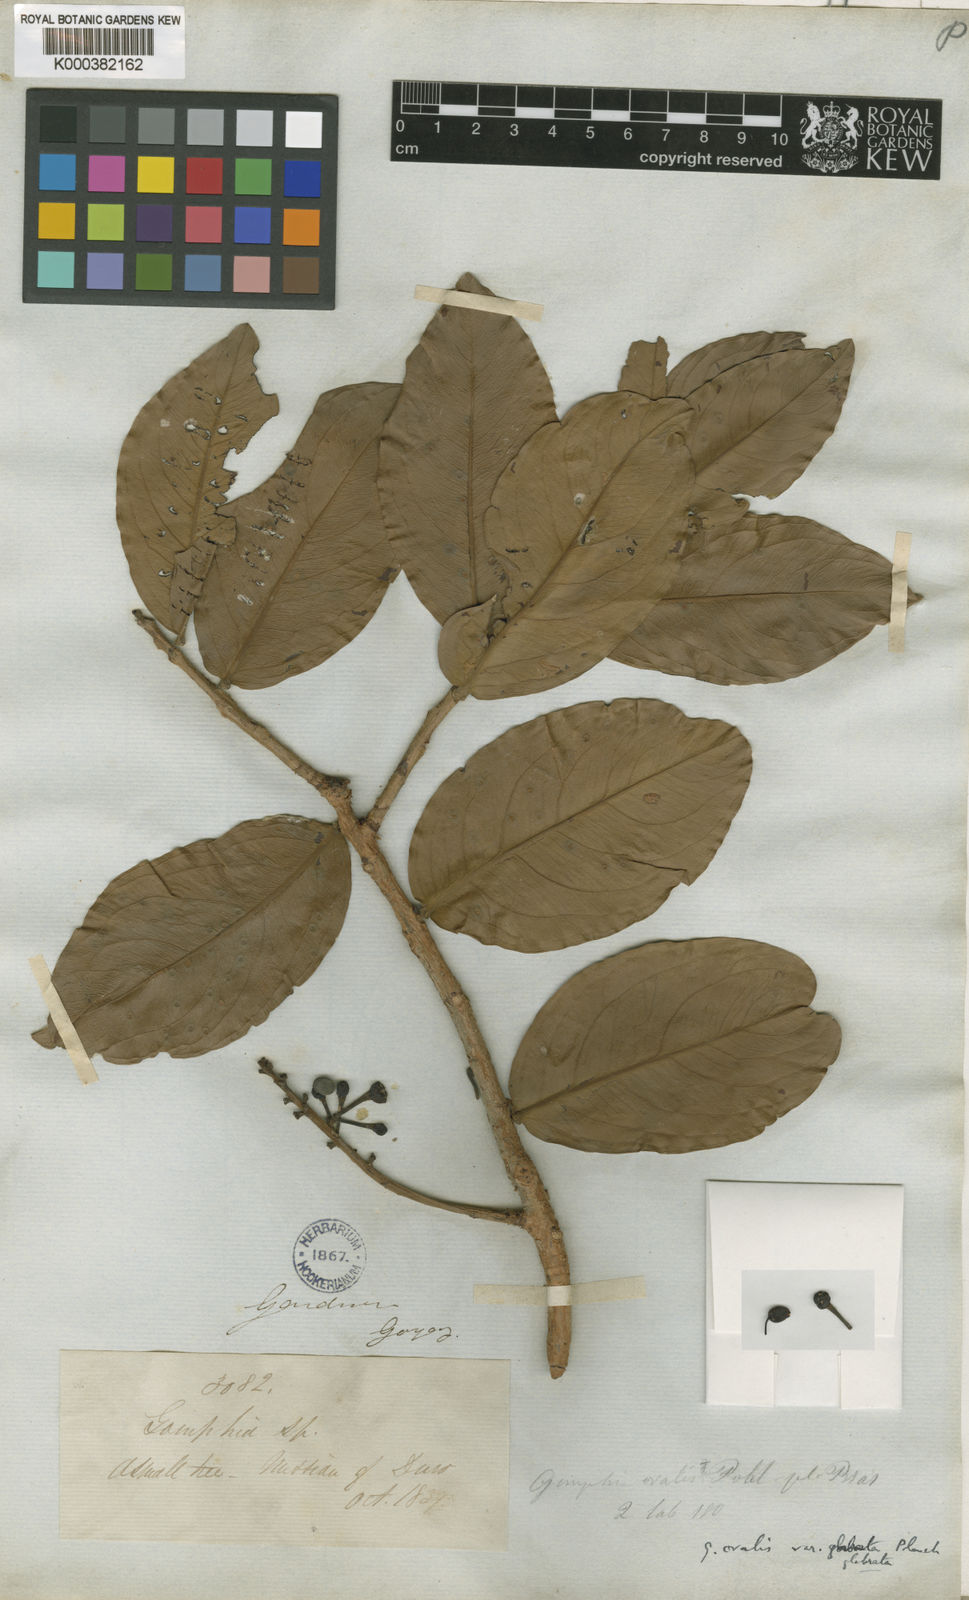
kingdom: Plantae
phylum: Tracheophyta
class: Magnoliopsida
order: Malpighiales
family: Ochnaceae
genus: Ouratea
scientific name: Ouratea ovalis
